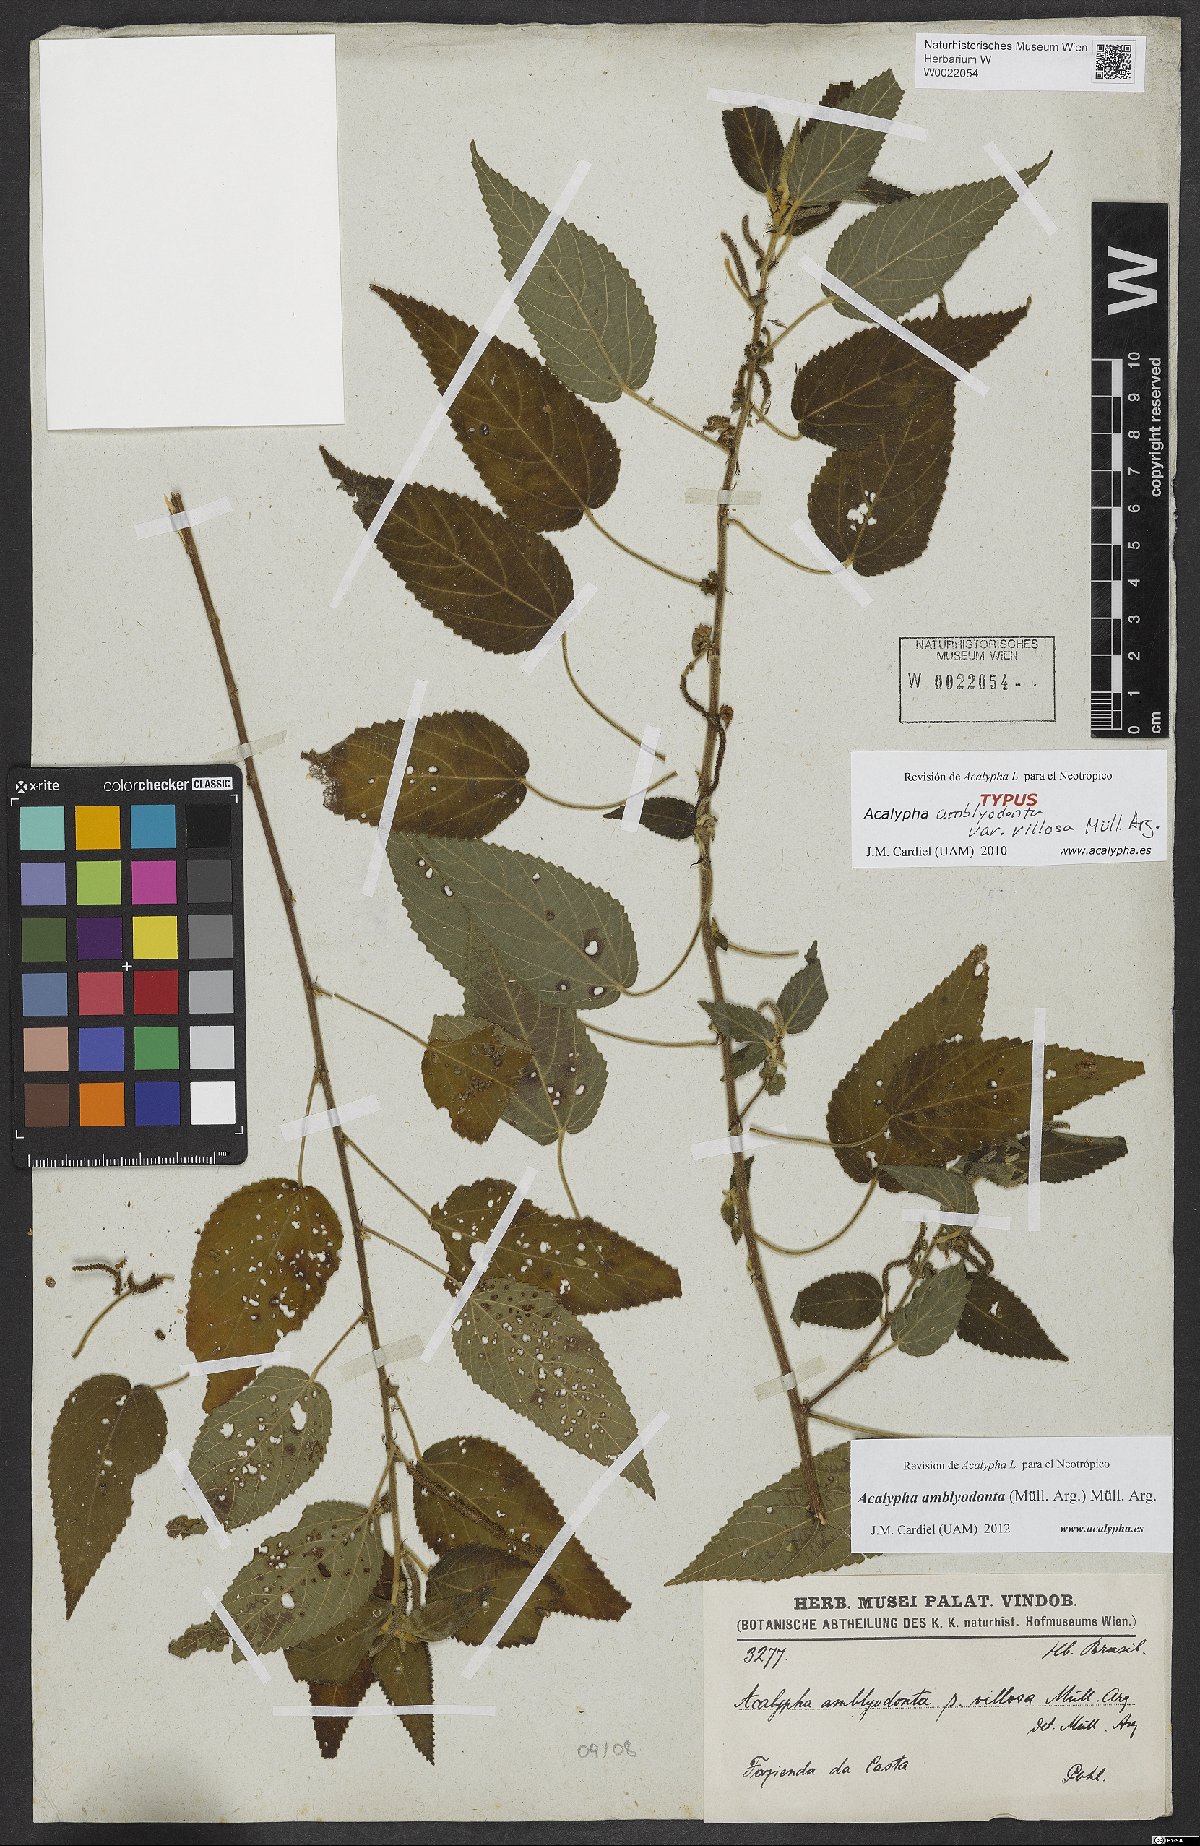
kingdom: Plantae
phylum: Tracheophyta
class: Magnoliopsida
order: Malpighiales
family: Euphorbiaceae
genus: Acalypha
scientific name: Acalypha amblyodonta
